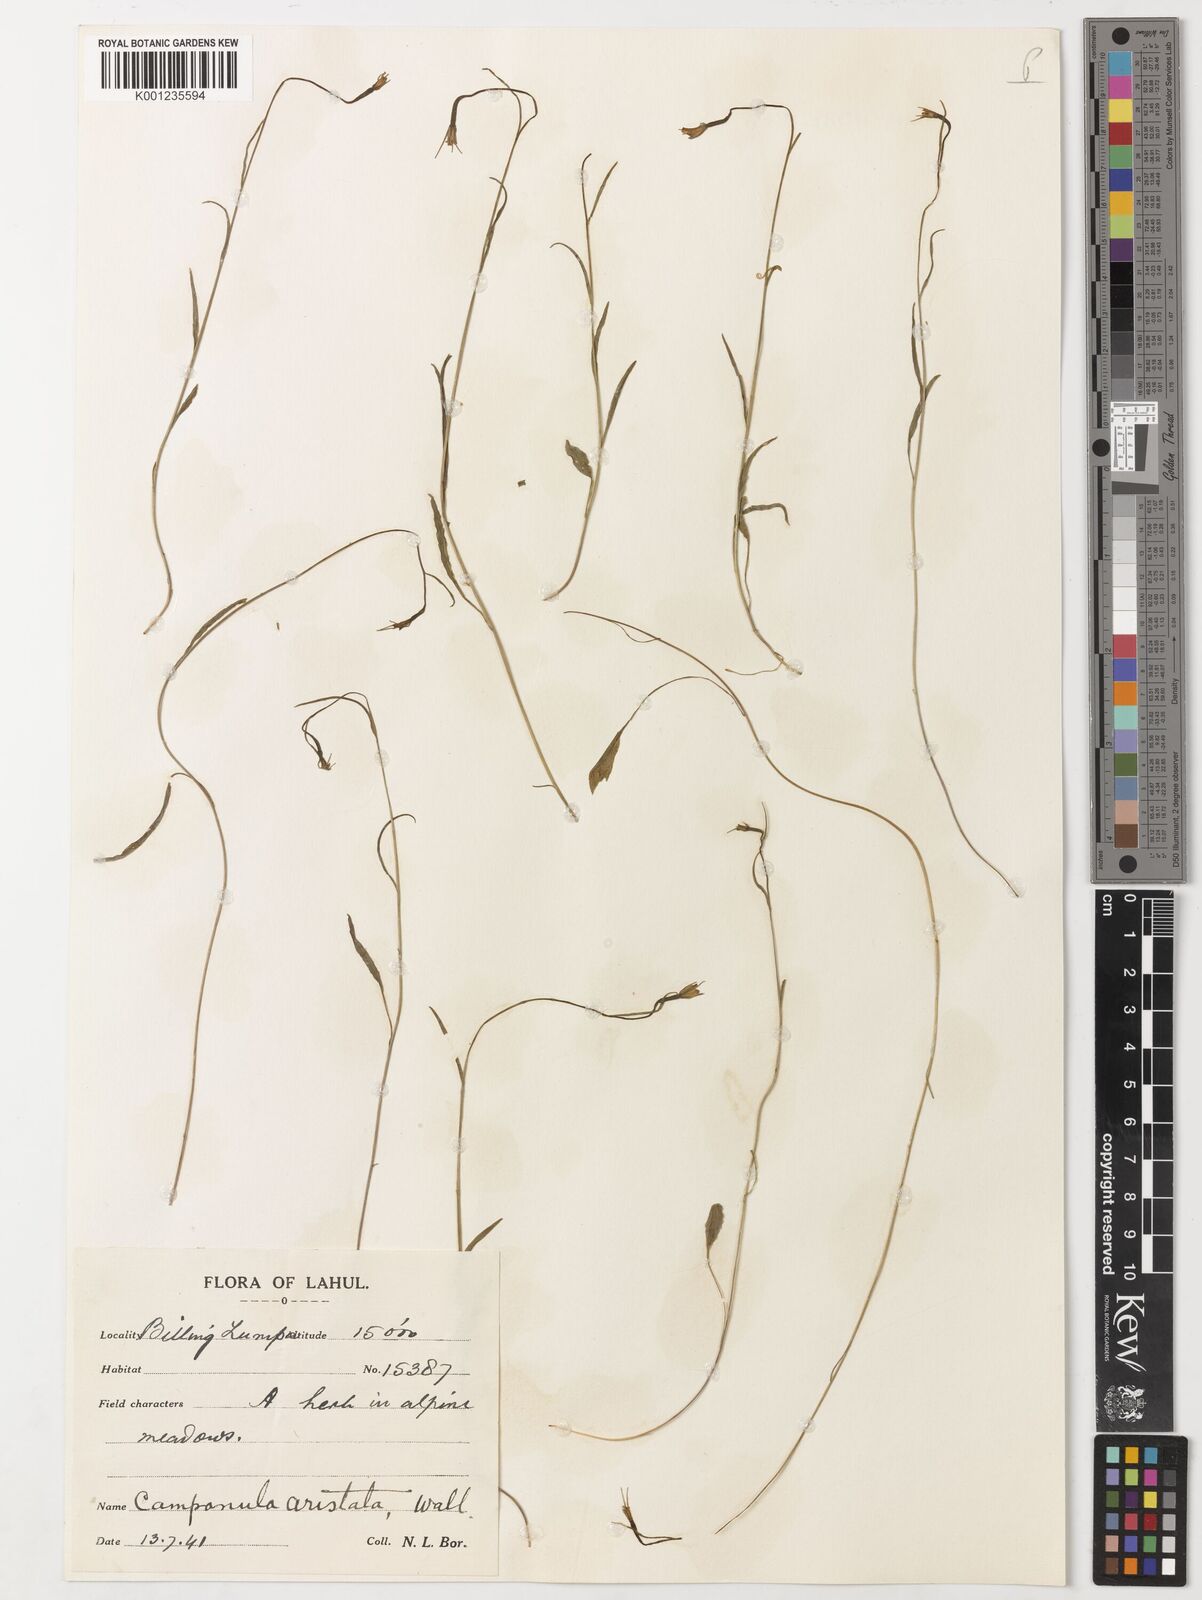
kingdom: Plantae
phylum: Tracheophyta
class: Magnoliopsida
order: Asterales
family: Campanulaceae
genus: Campanula
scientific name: Campanula aristata
